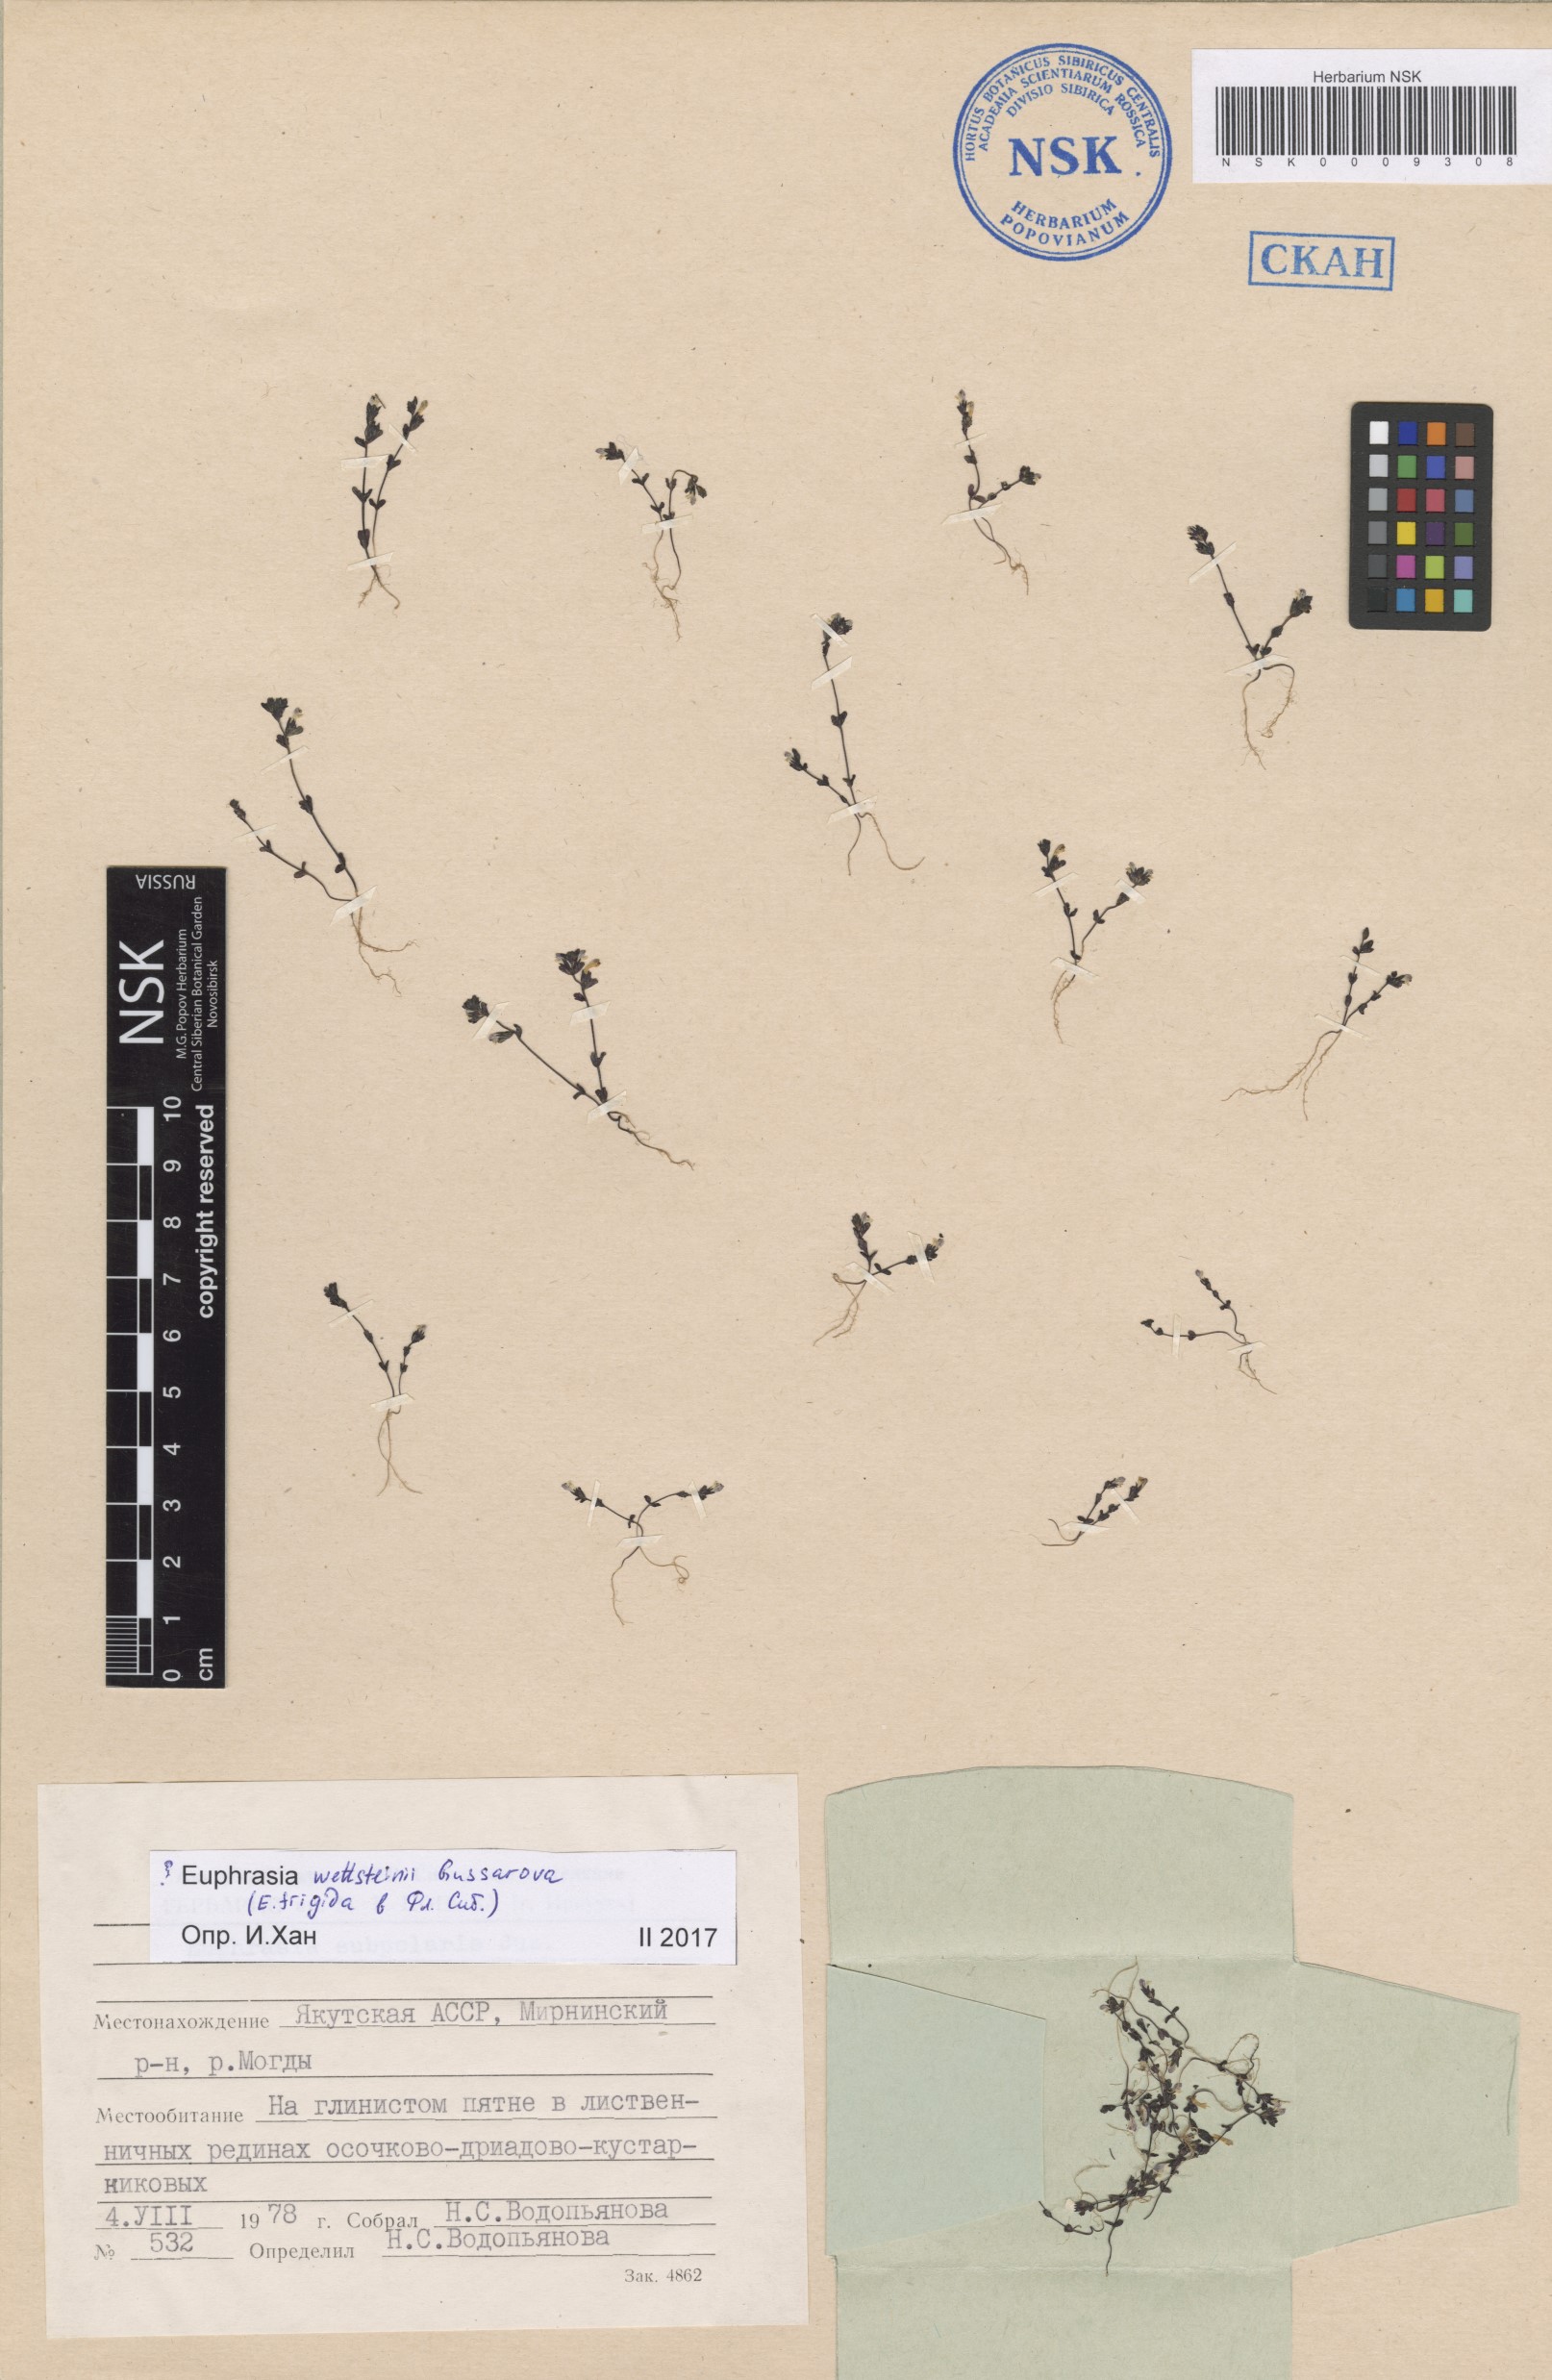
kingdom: Plantae
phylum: Tracheophyta
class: Magnoliopsida
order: Lamiales
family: Orobanchaceae
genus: Euphrasia
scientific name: Euphrasia wettsteinii
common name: Wettstein's eyebright
